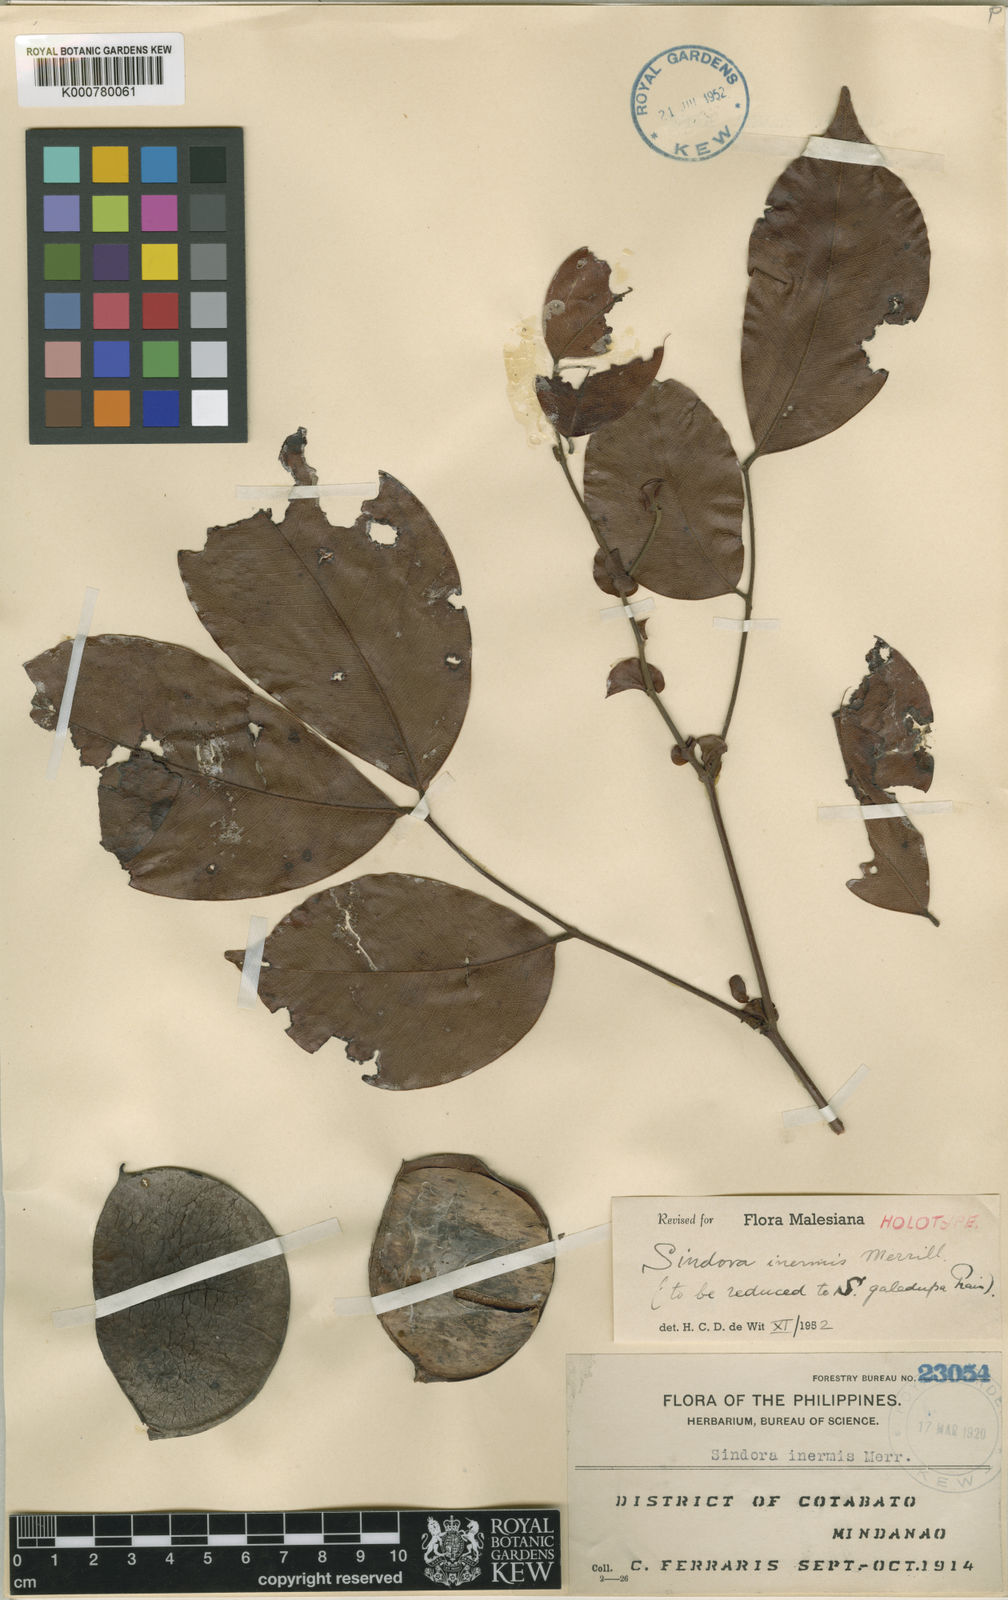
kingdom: Plantae
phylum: Tracheophyta
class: Magnoliopsida
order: Fabales
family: Fabaceae
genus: Sindora
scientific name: Sindora galedupa
